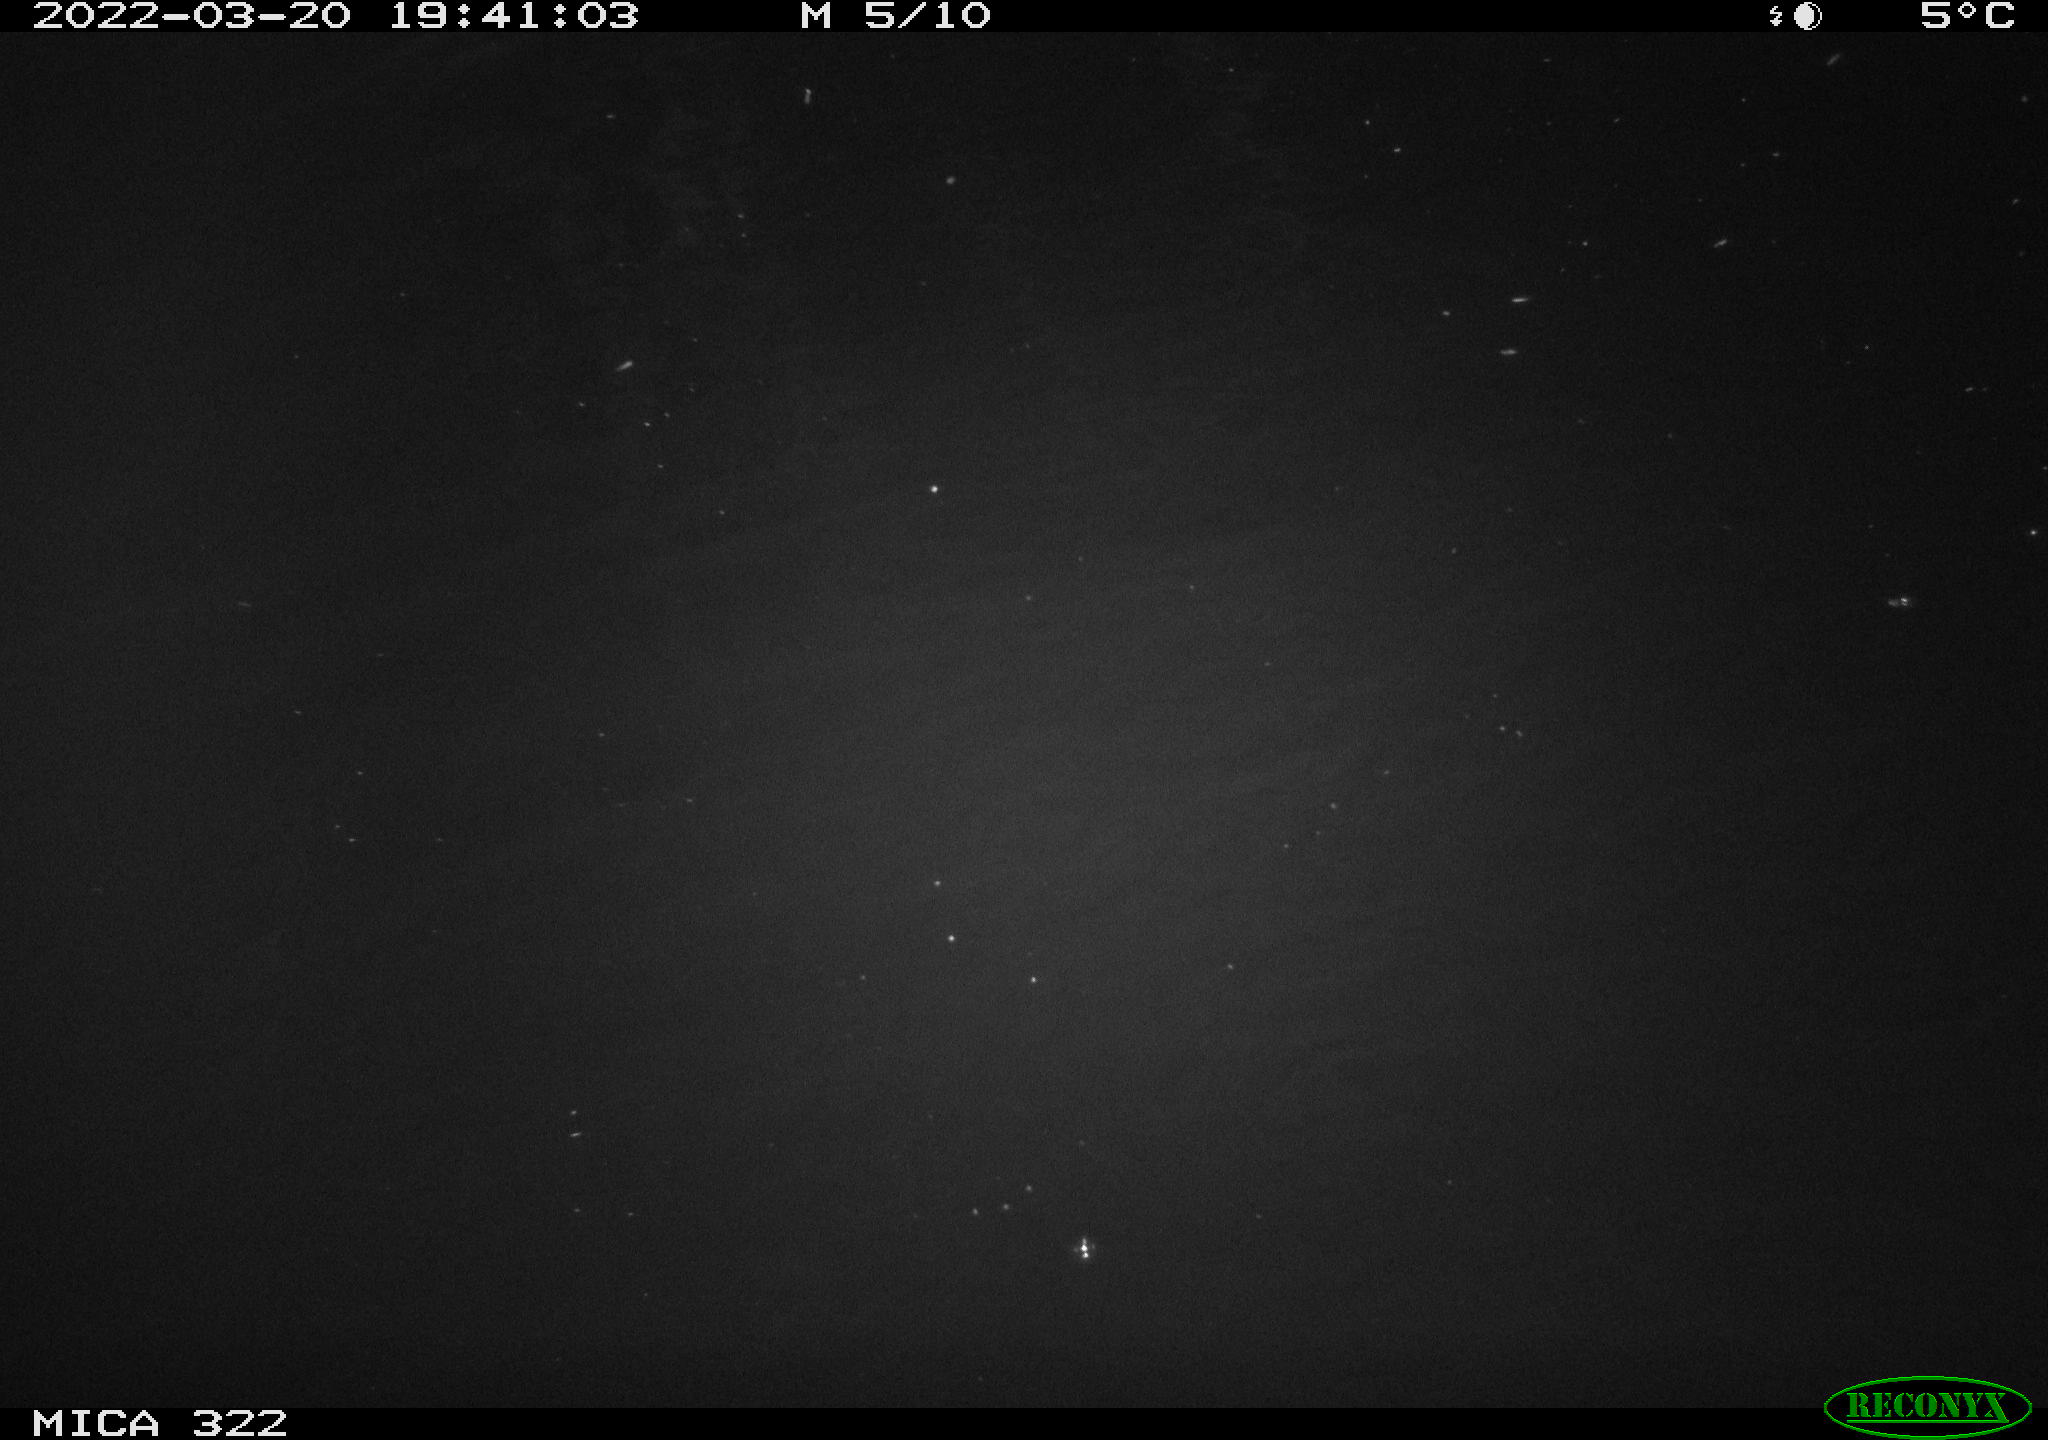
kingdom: Animalia
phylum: Chordata
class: Mammalia
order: Carnivora
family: Mustelidae
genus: Mustela
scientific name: Mustela putorius
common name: European polecat
